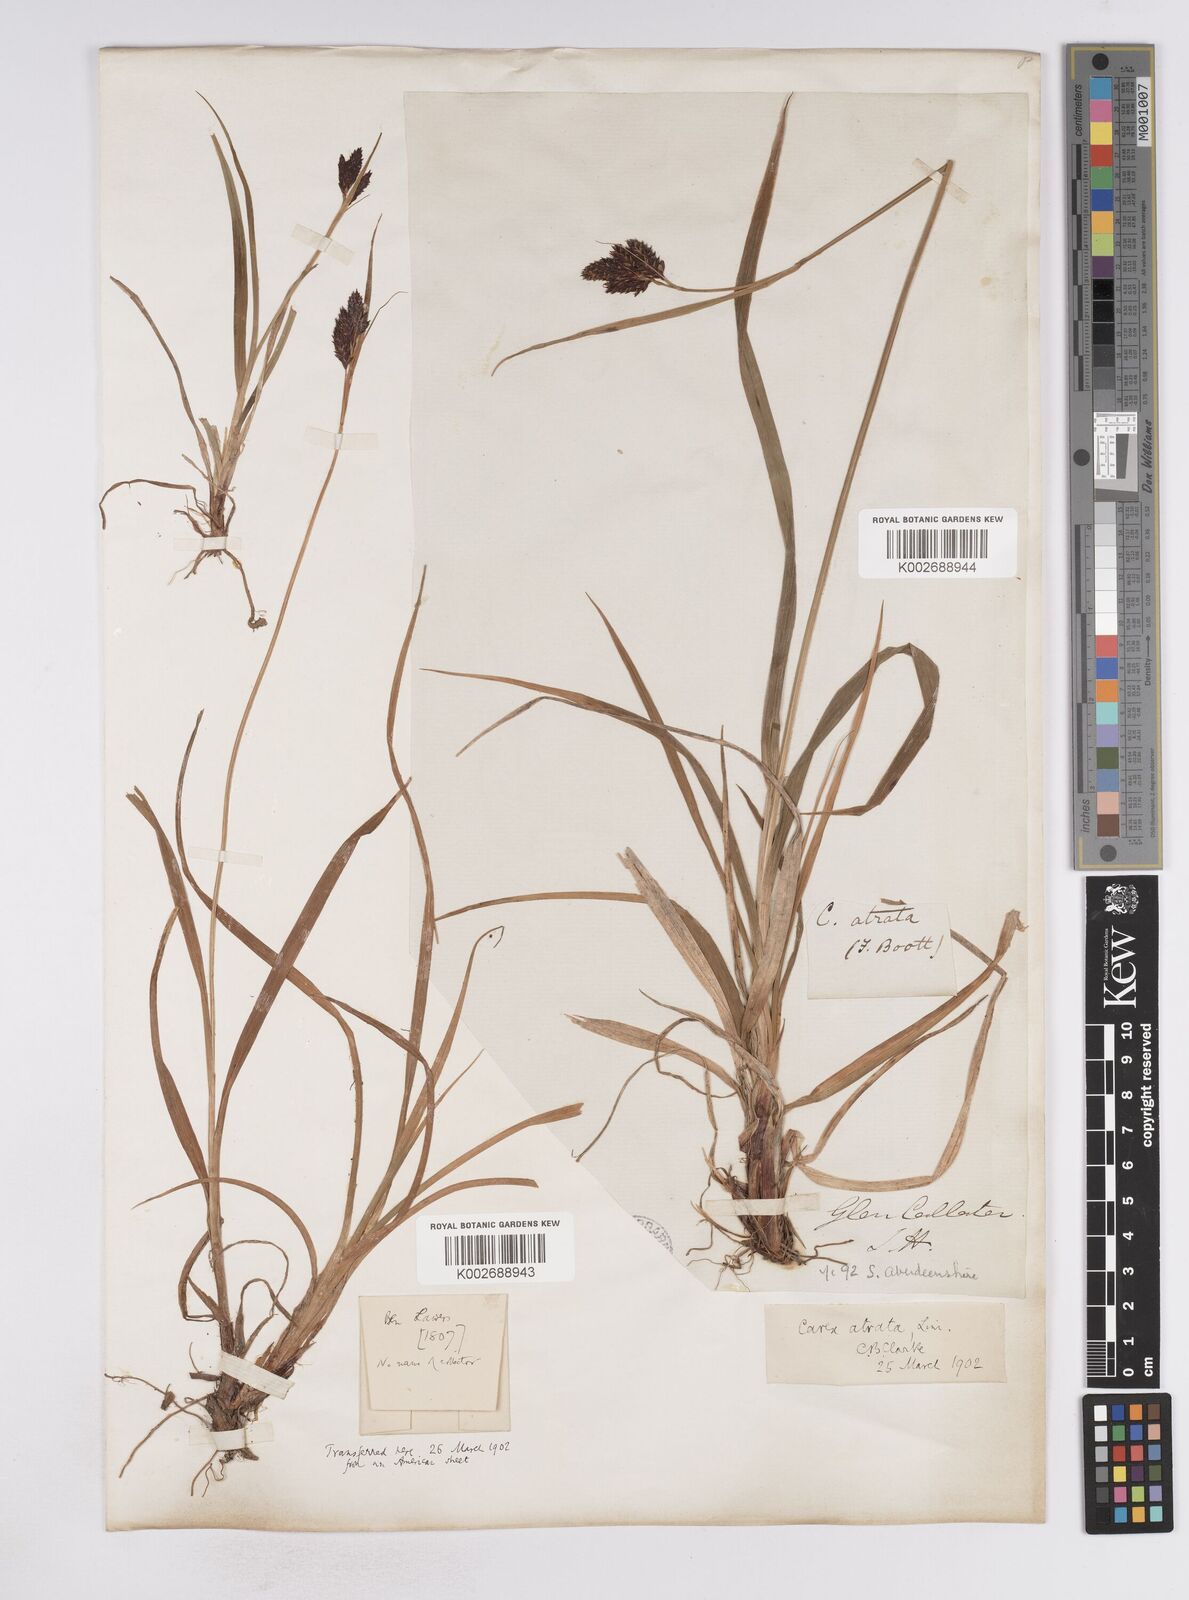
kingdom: Plantae
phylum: Tracheophyta
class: Liliopsida
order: Poales
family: Cyperaceae
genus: Carex
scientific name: Carex atrata
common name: Black alpine sedge
